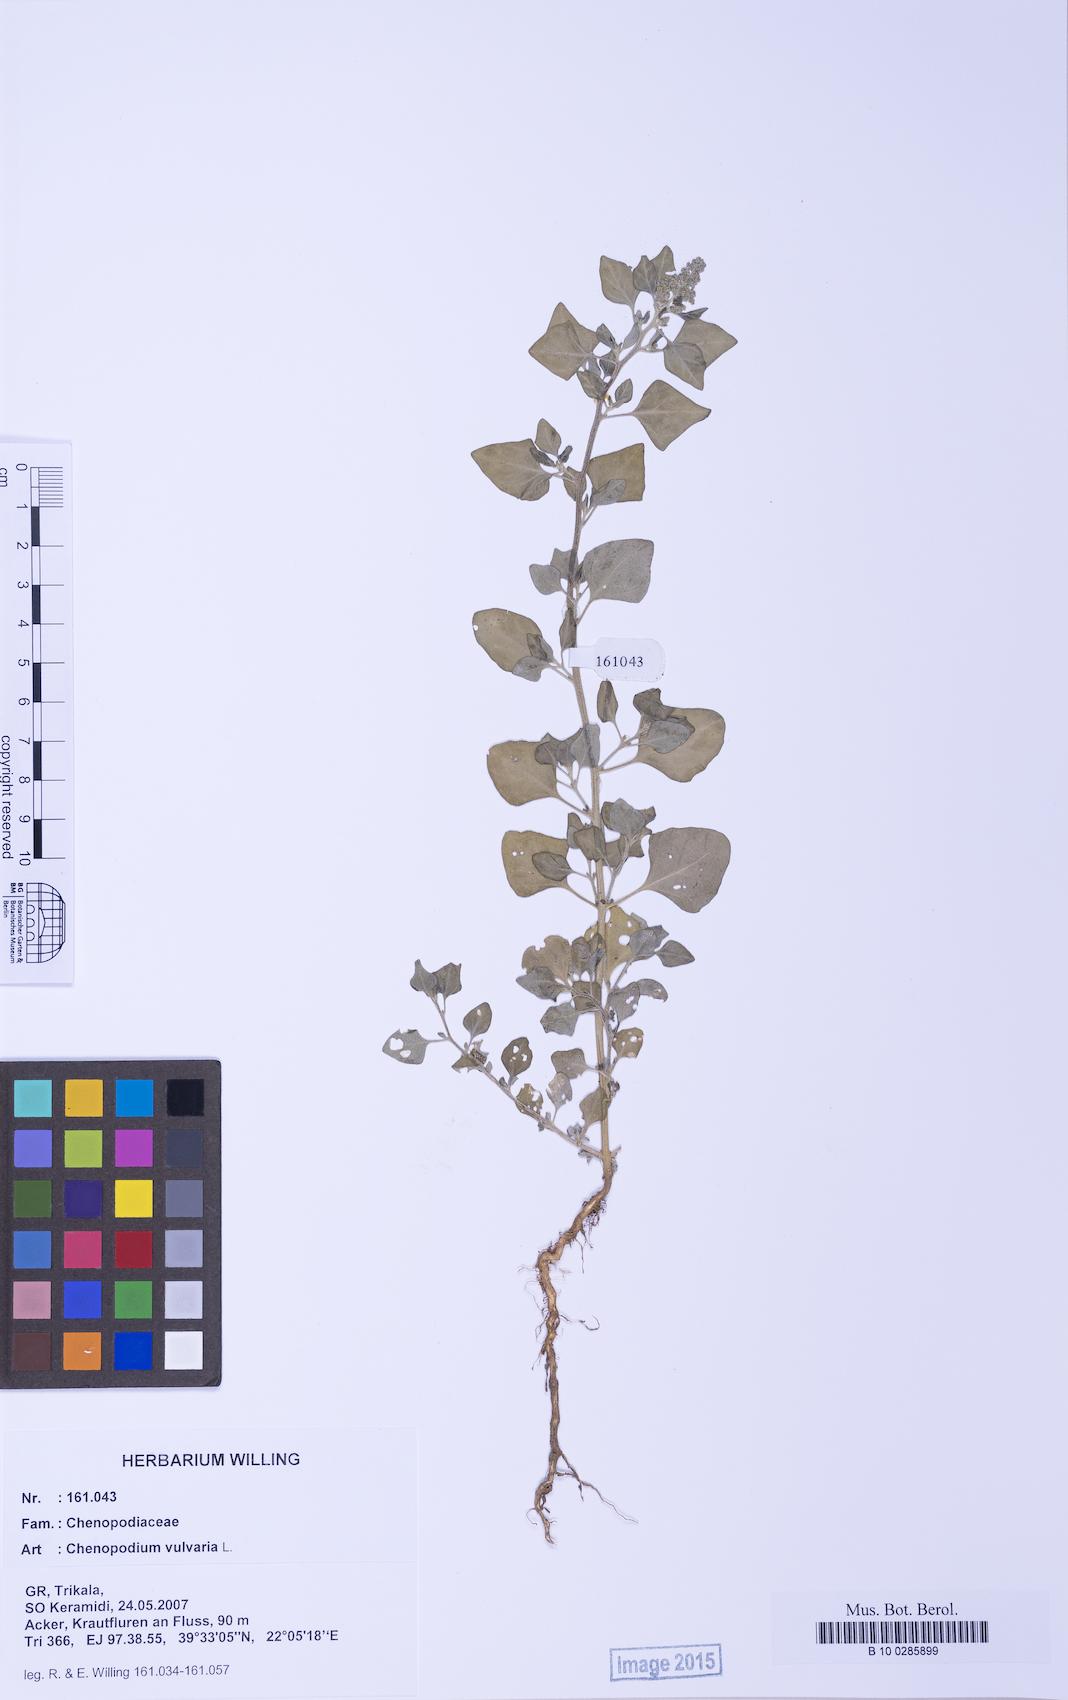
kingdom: Plantae
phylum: Tracheophyta
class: Magnoliopsida
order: Caryophyllales
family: Amaranthaceae
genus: Chenopodium
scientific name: Chenopodium vulvaria
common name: Stinking goosefoot
